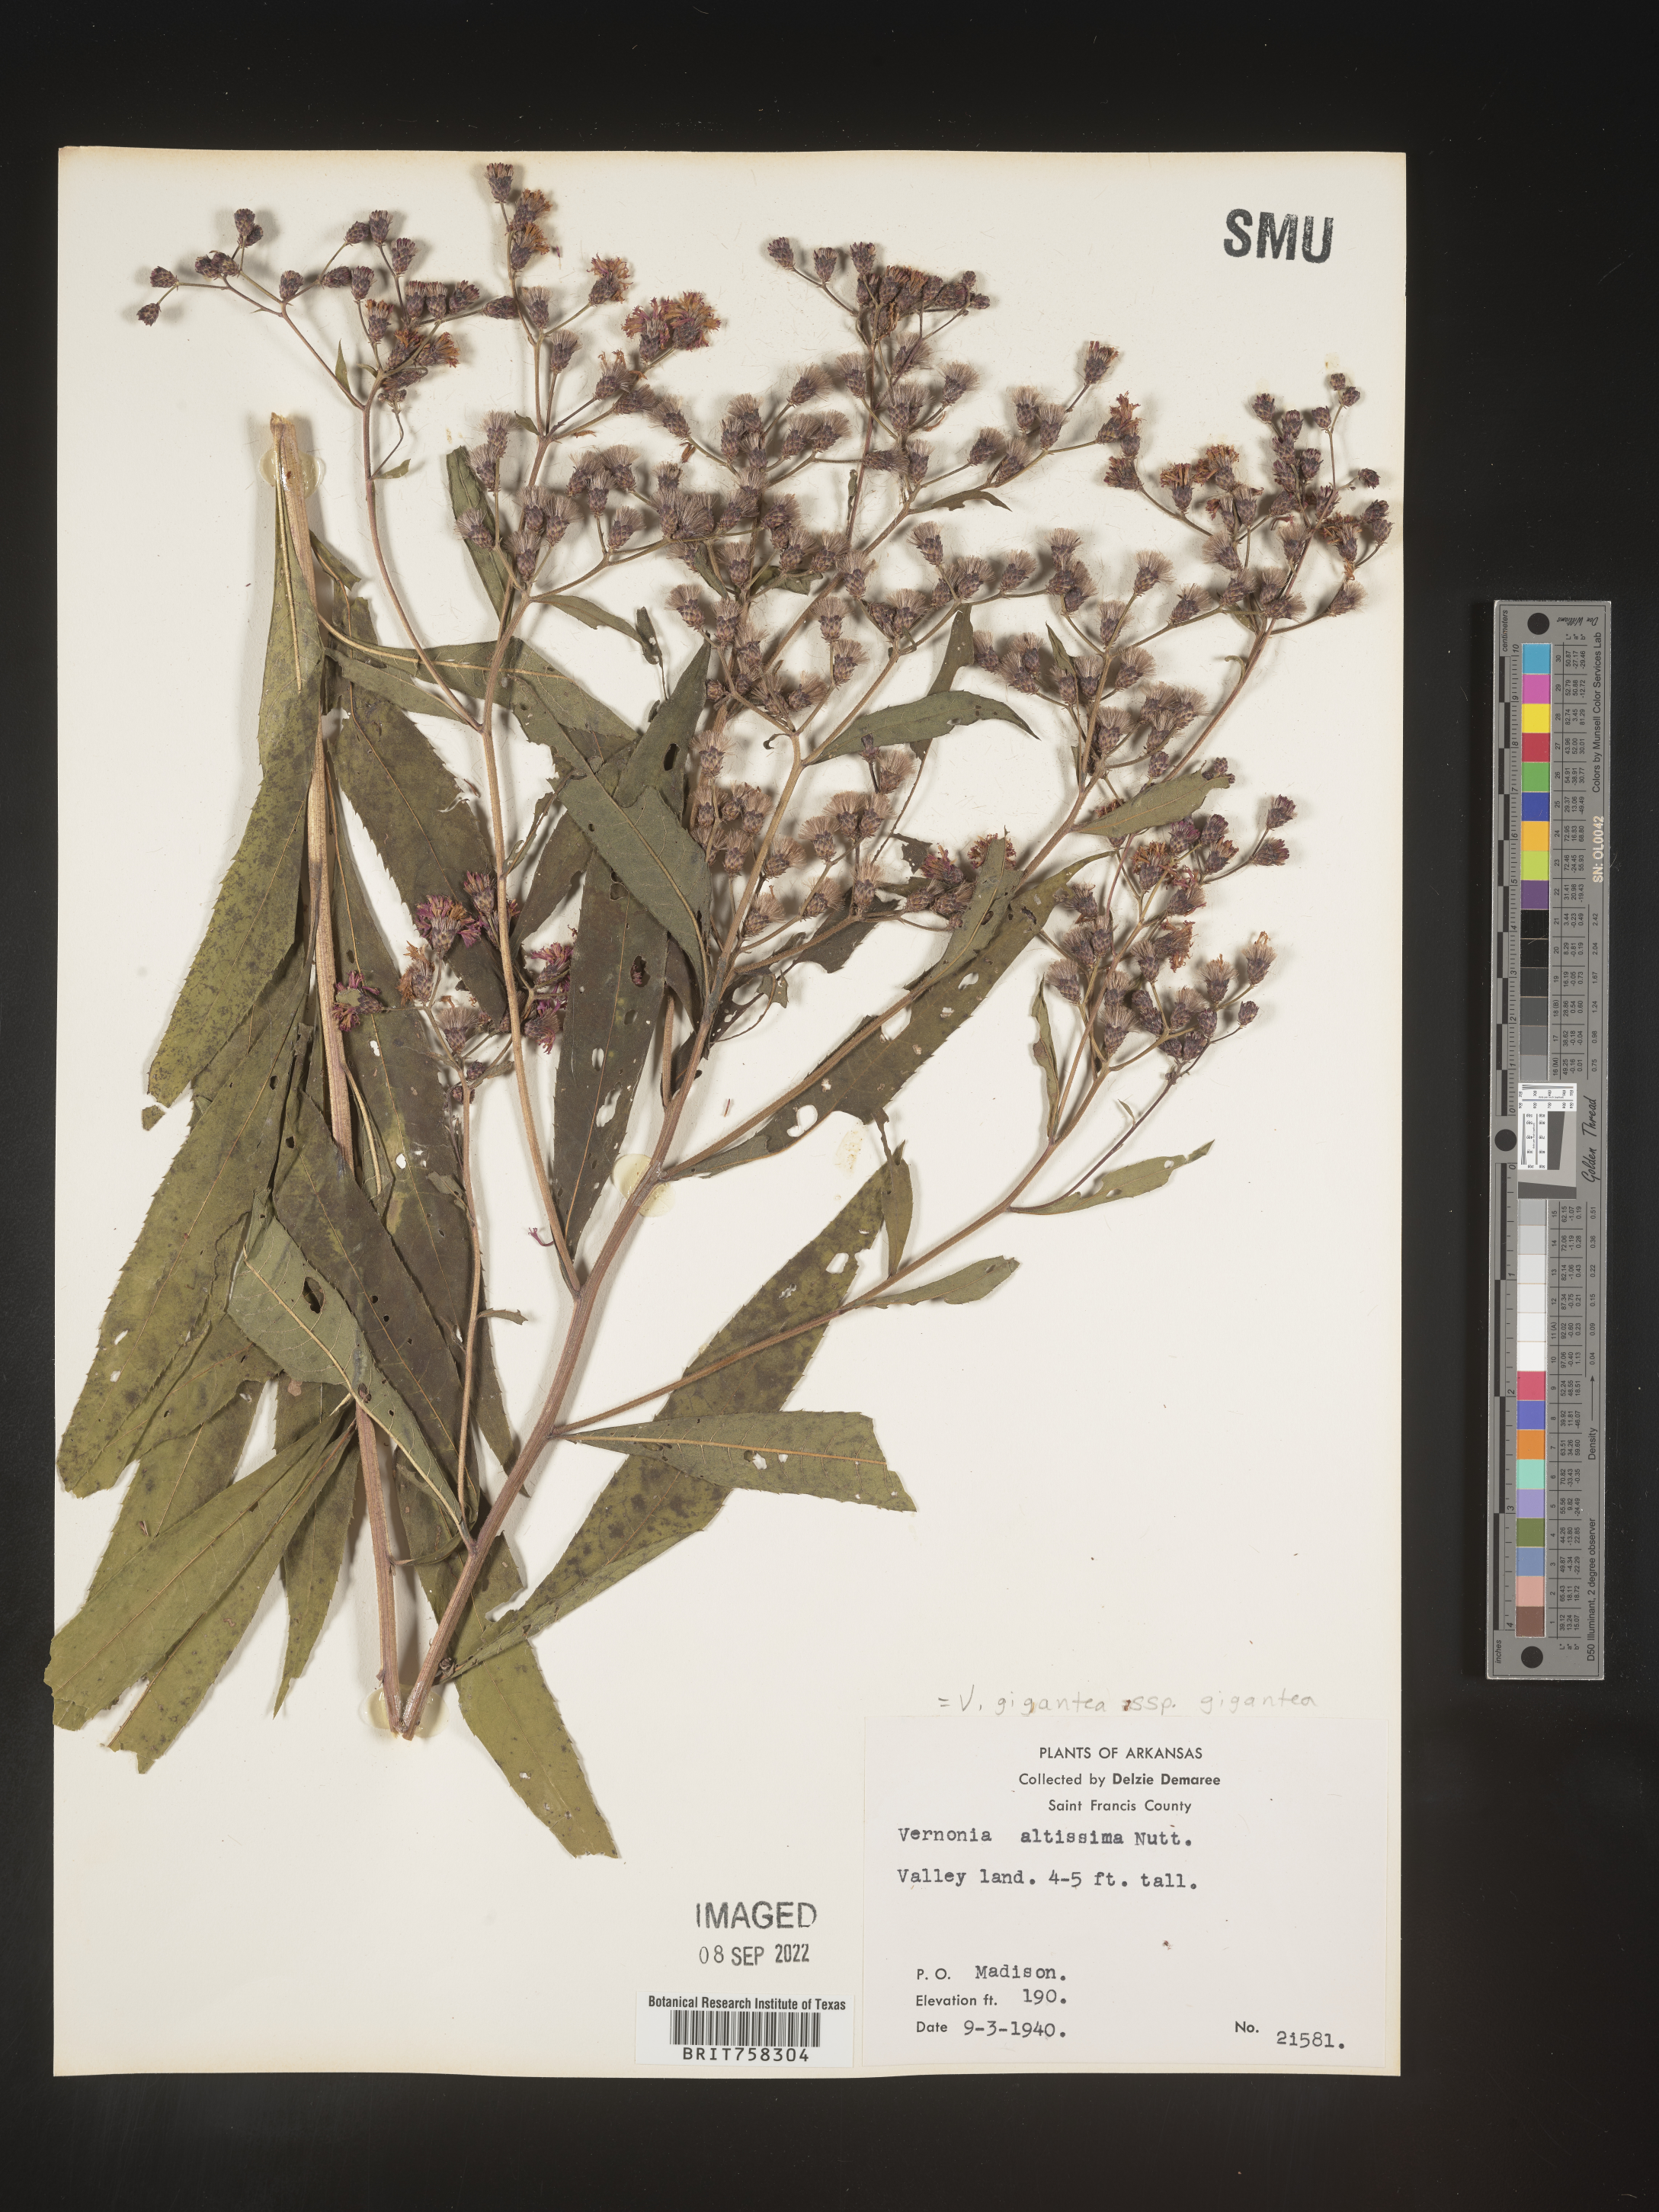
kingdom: Plantae
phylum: Tracheophyta
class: Magnoliopsida
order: Asterales
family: Asteraceae
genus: Vernonia
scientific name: Vernonia gigantea
